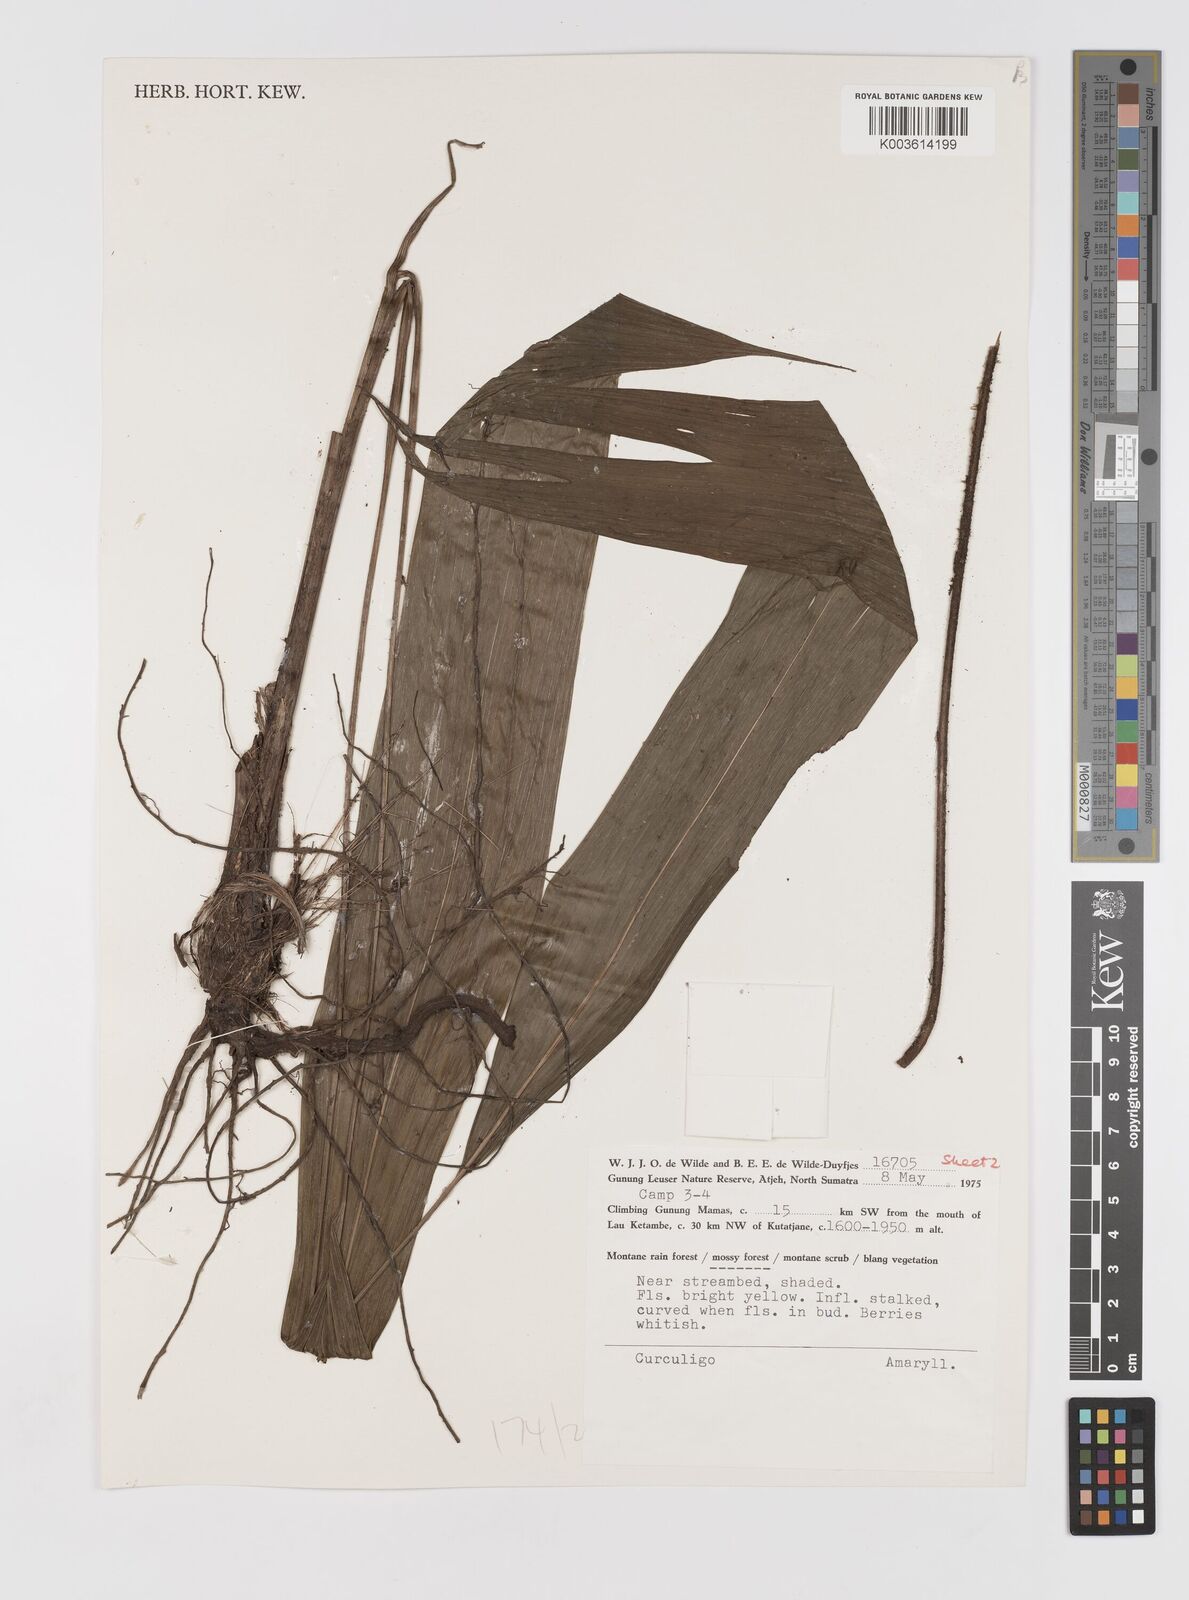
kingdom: Plantae
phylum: Tracheophyta
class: Liliopsida
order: Asparagales
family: Hypoxidaceae
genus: Curculigo
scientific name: Curculigo
